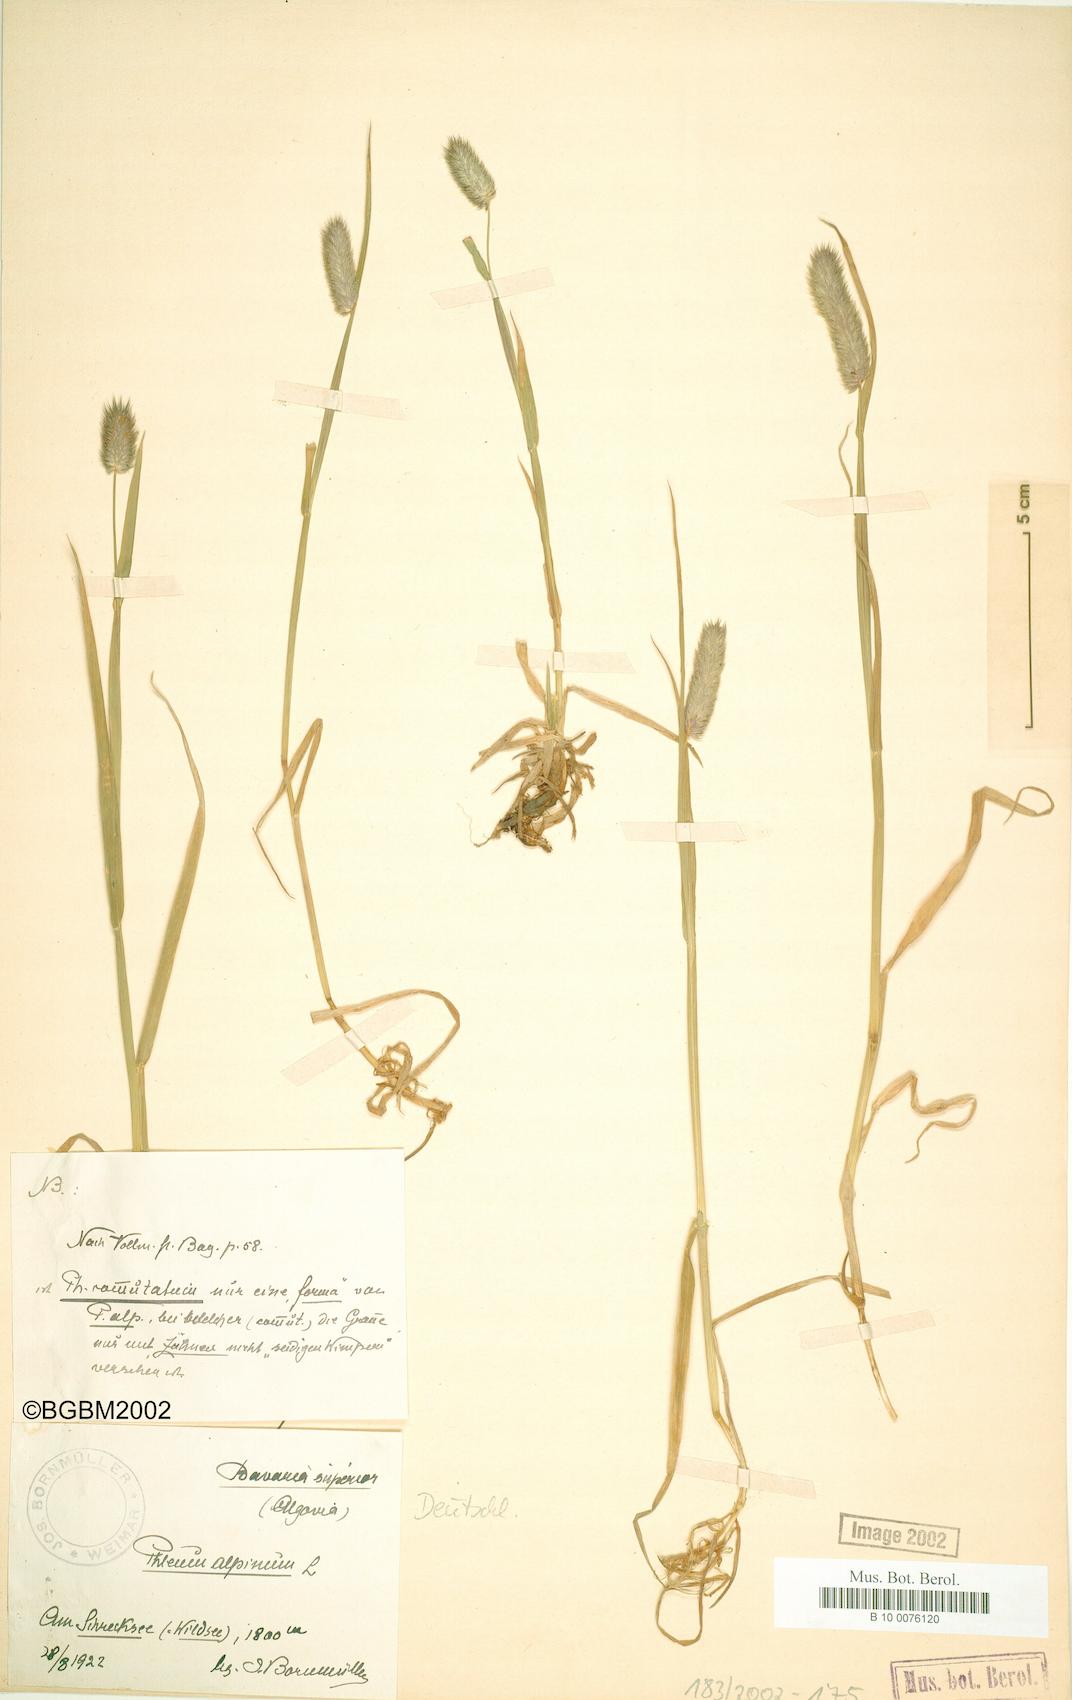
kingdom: Plantae
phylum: Tracheophyta
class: Liliopsida
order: Poales
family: Poaceae
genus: Phleum
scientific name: Phleum alpinum
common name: Alpine cat's-tail
